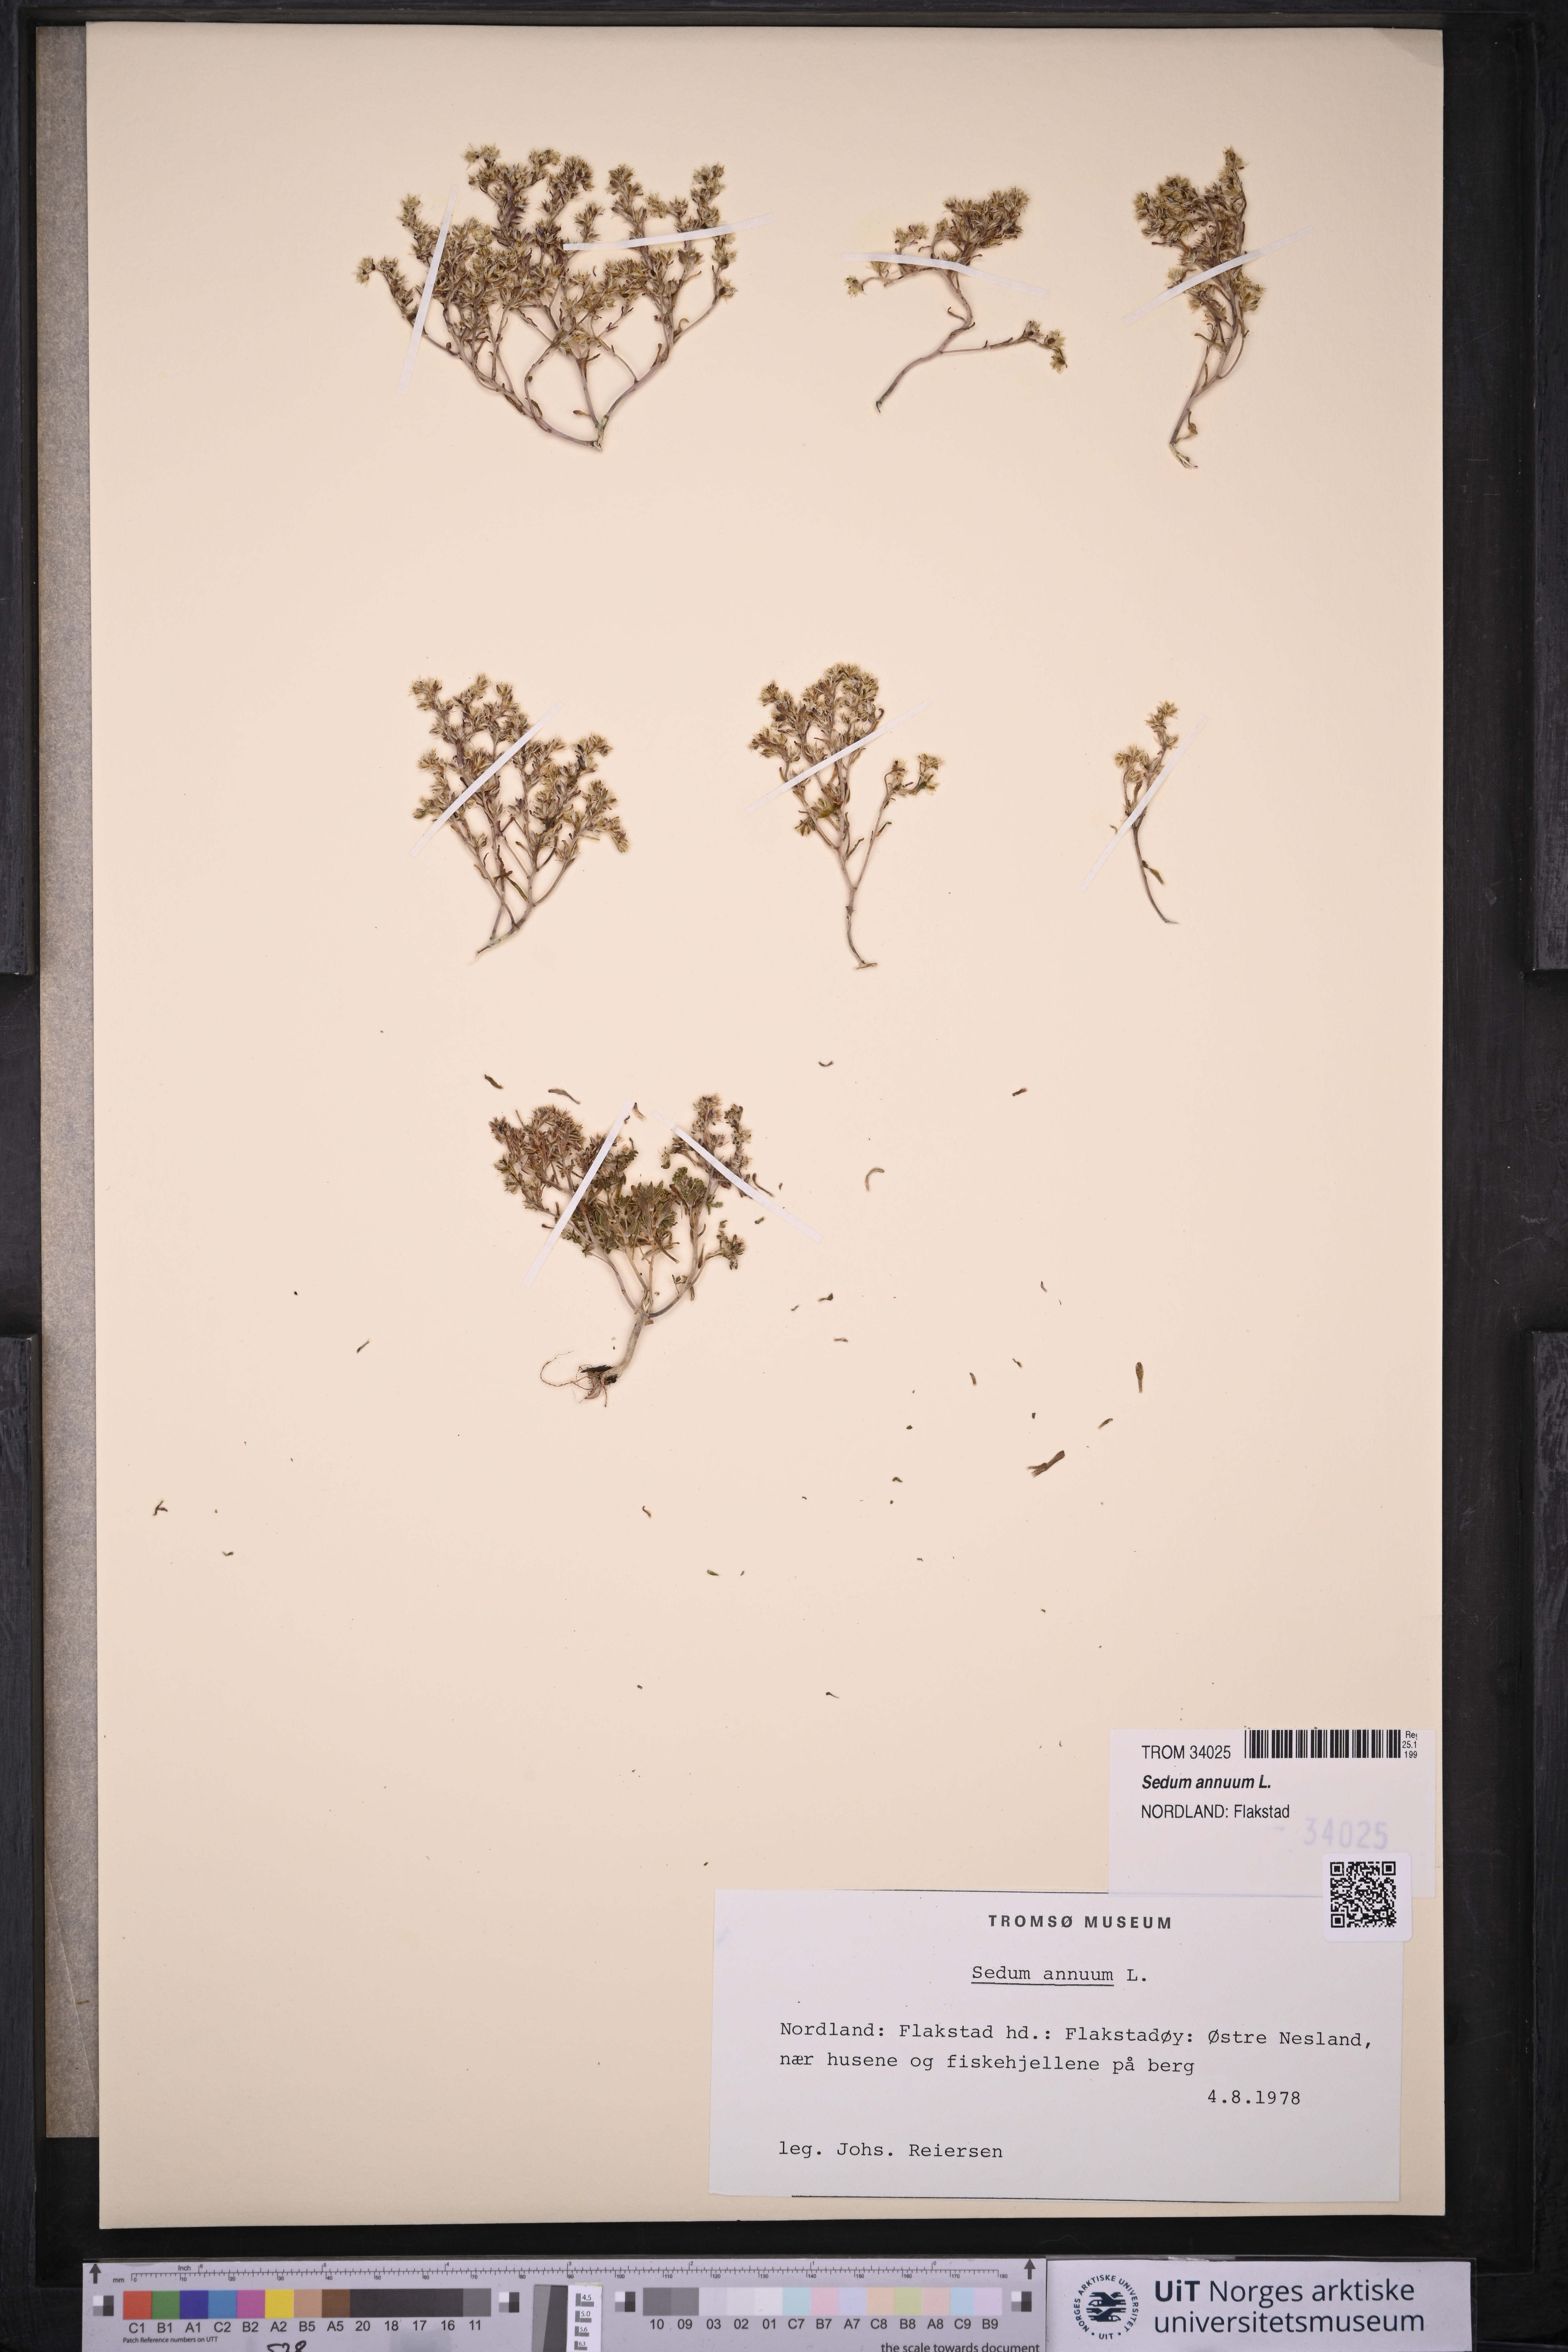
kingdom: Plantae
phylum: Tracheophyta
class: Magnoliopsida
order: Saxifragales
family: Crassulaceae
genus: Sedum
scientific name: Sedum annuum
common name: Annual stonecrop
